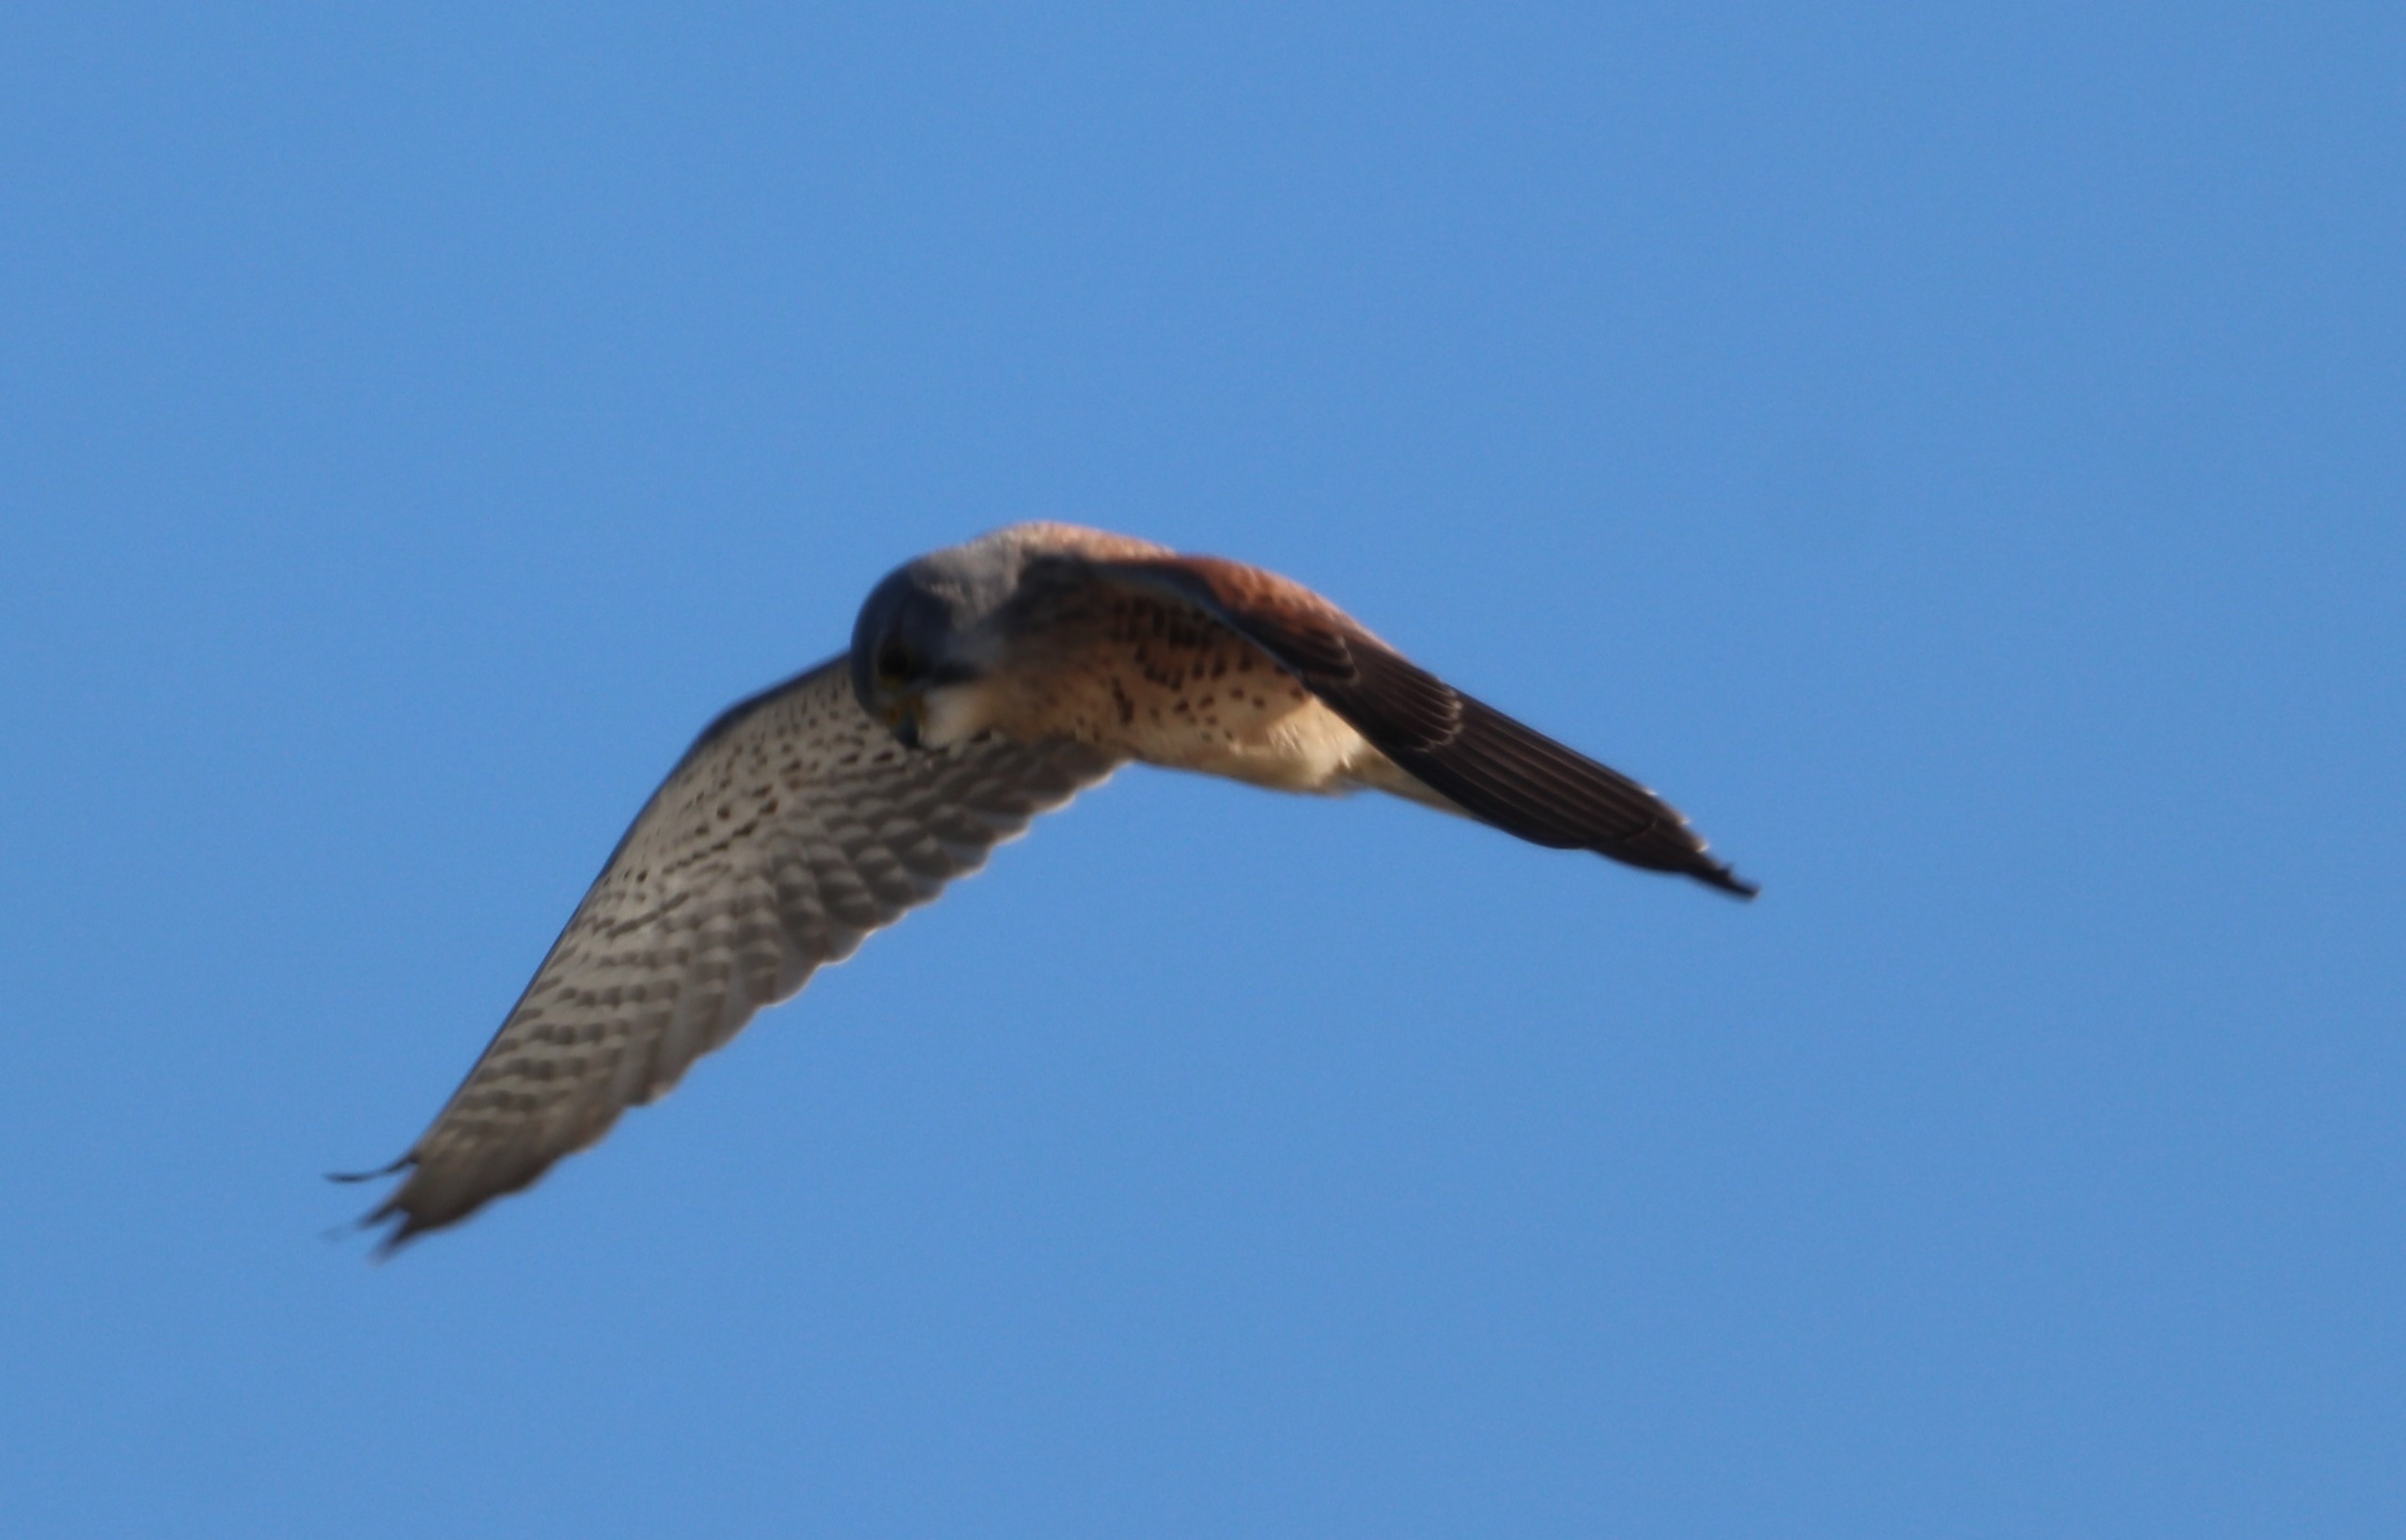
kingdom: Animalia
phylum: Chordata
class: Aves
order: Falconiformes
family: Falconidae
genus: Falco
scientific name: Falco tinnunculus
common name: Tårnfalk
